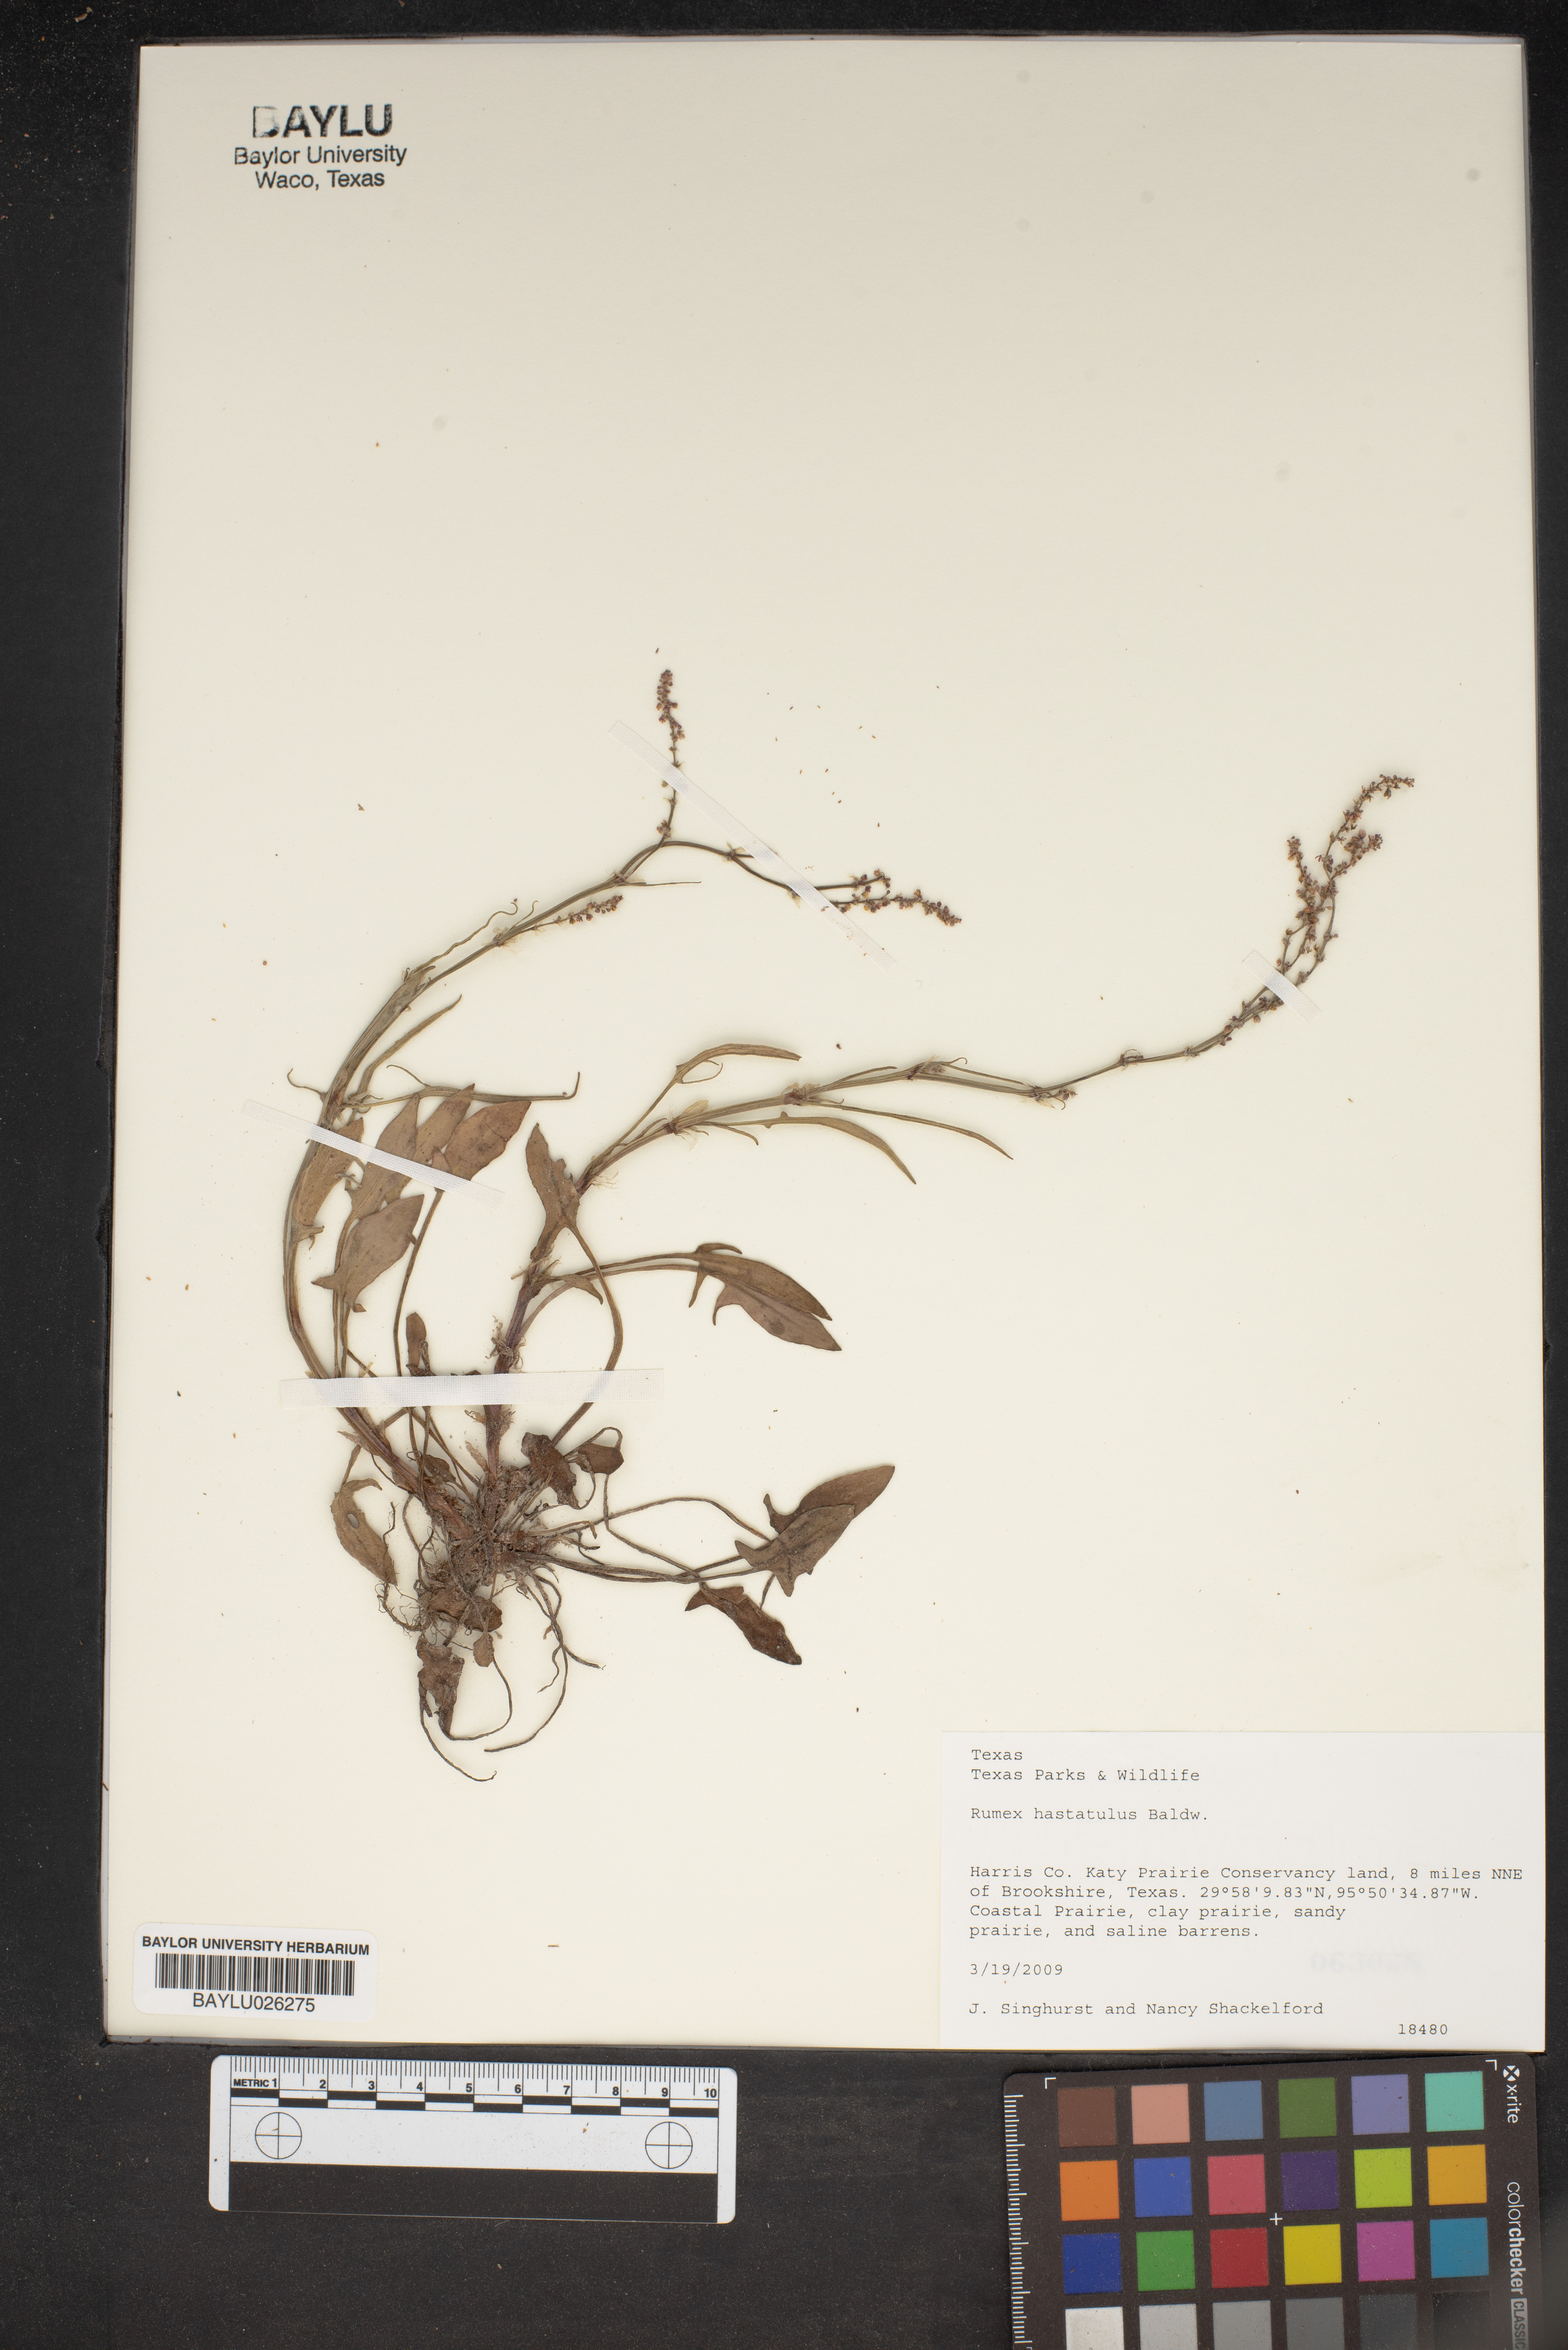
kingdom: Plantae
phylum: Tracheophyta
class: Magnoliopsida
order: Caryophyllales
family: Polygonaceae
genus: Rumex
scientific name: Rumex hastatulus
